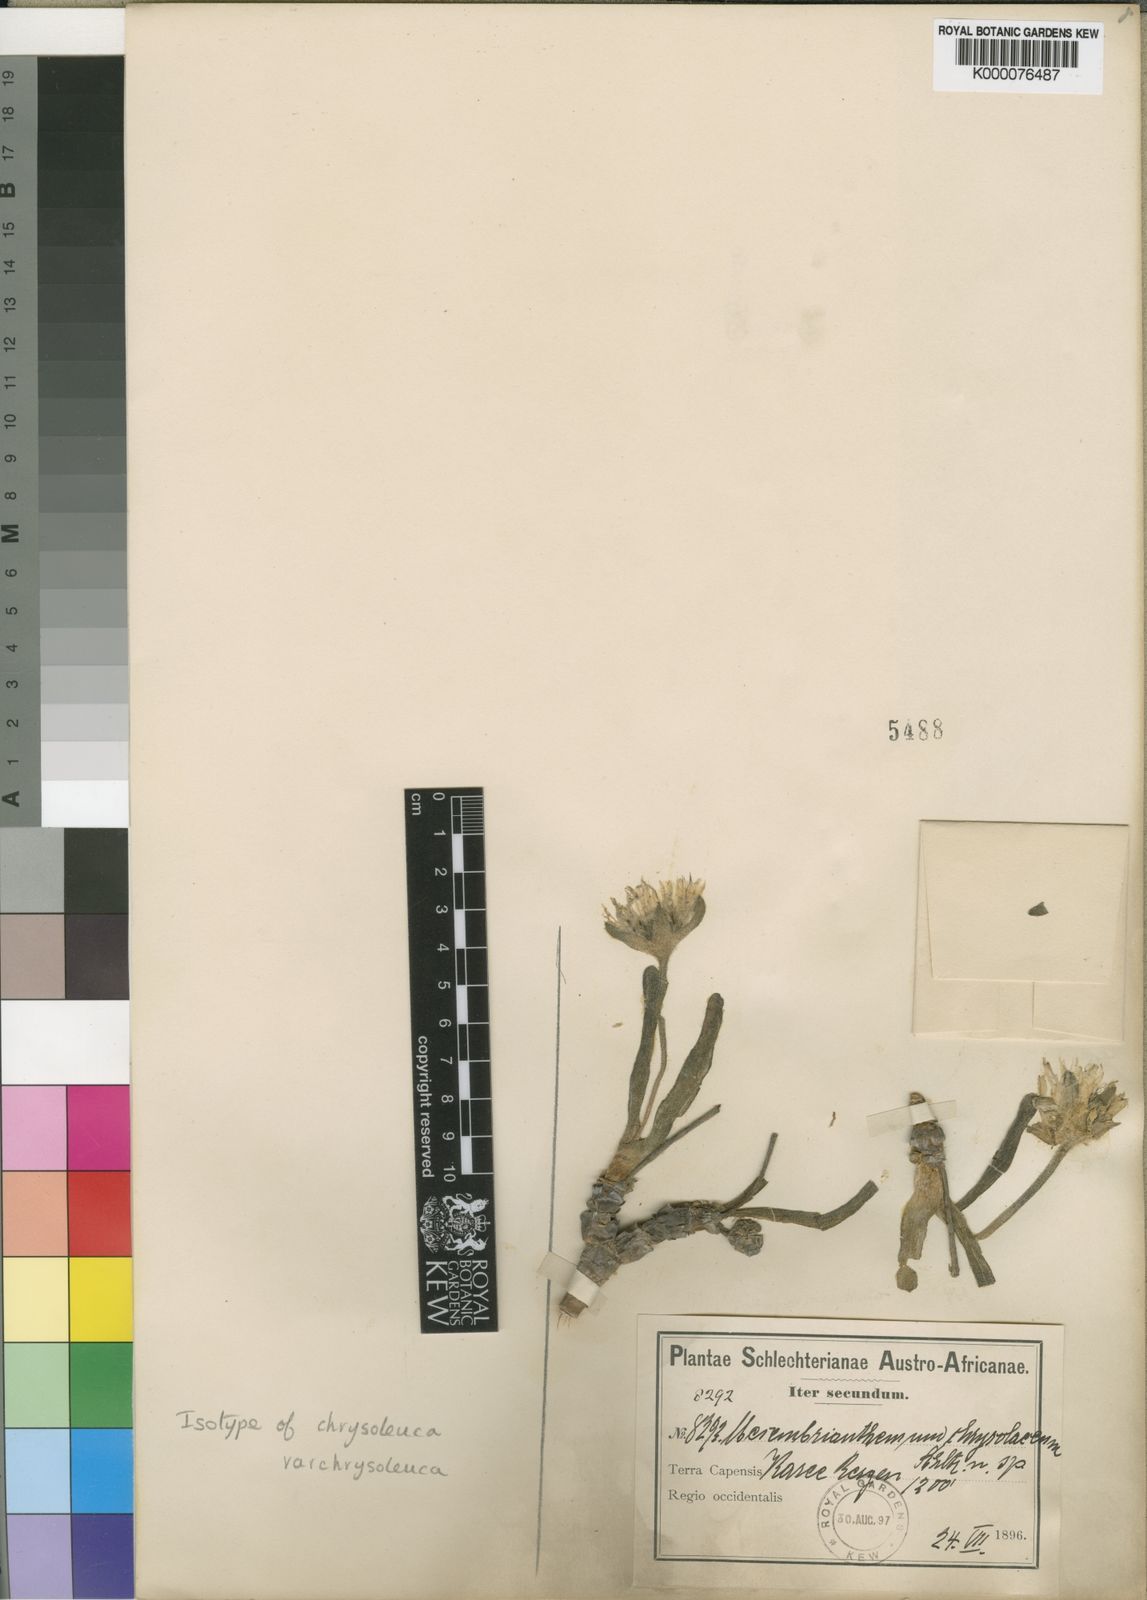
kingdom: Plantae
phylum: Tracheophyta
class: Magnoliopsida
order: Caryophyllales
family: Aizoaceae
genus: Dracophilus
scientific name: Dracophilus Monilaria chrysoleuca
